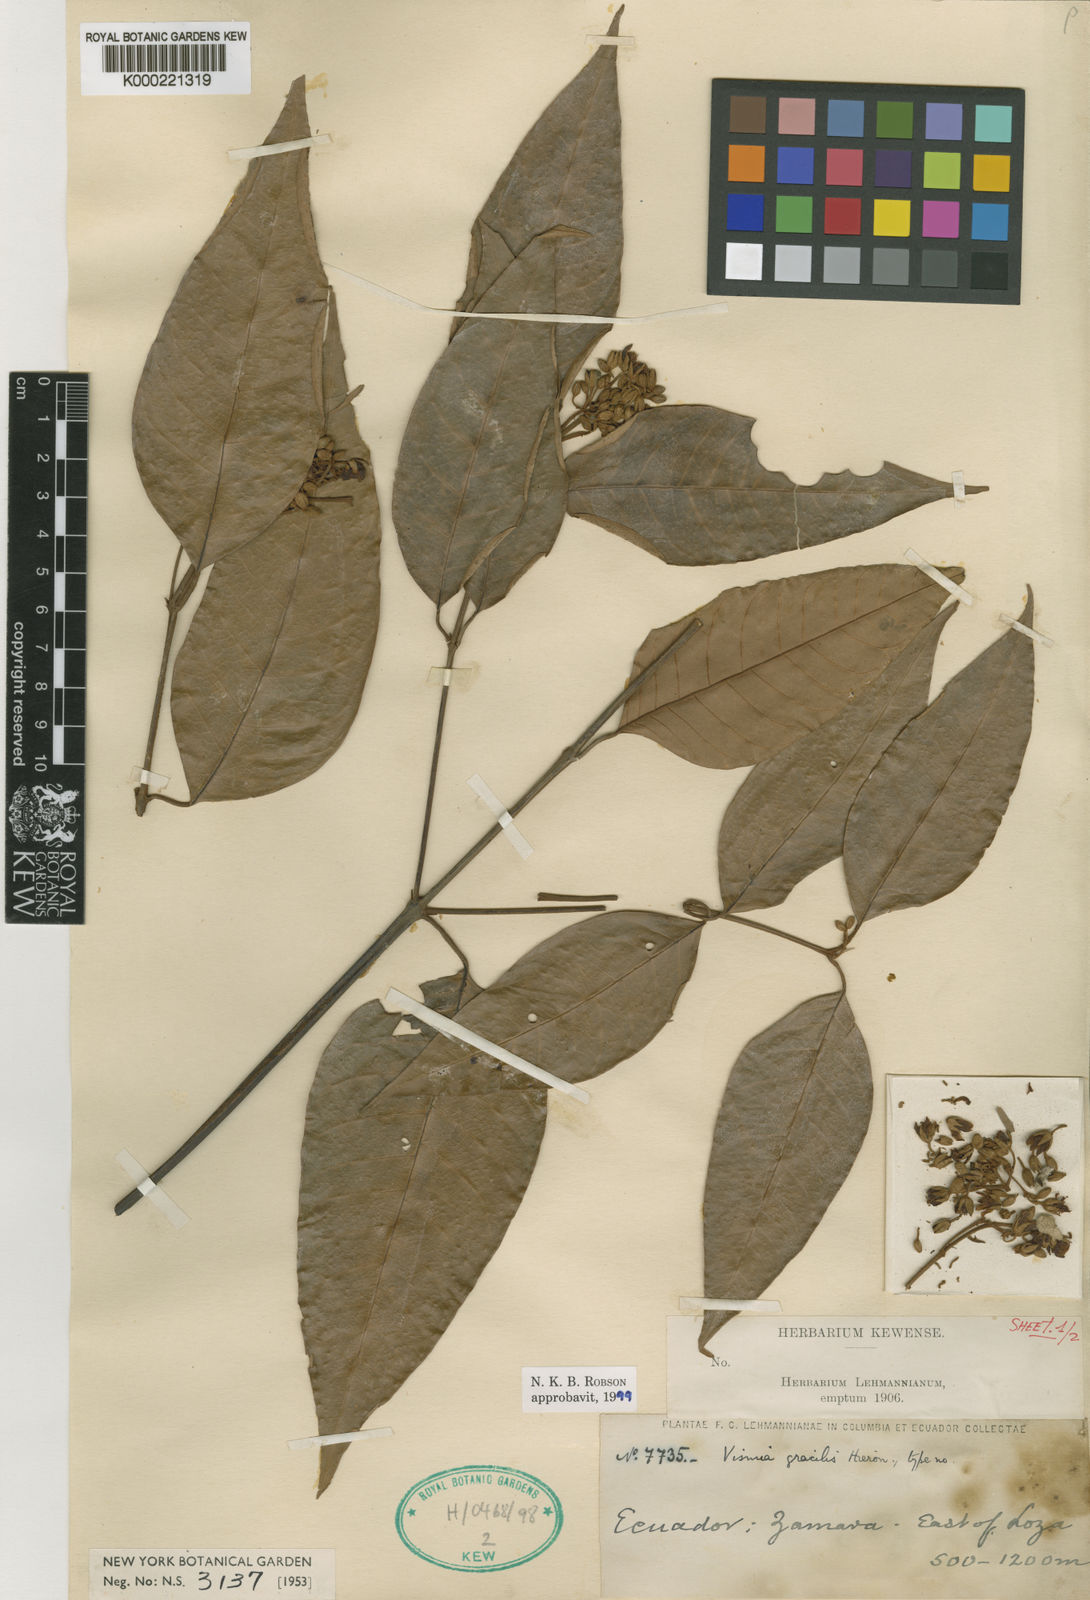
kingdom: Plantae
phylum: Tracheophyta
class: Magnoliopsida
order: Malpighiales
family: Hypericaceae
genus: Vismia
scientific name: Vismia gracilis
